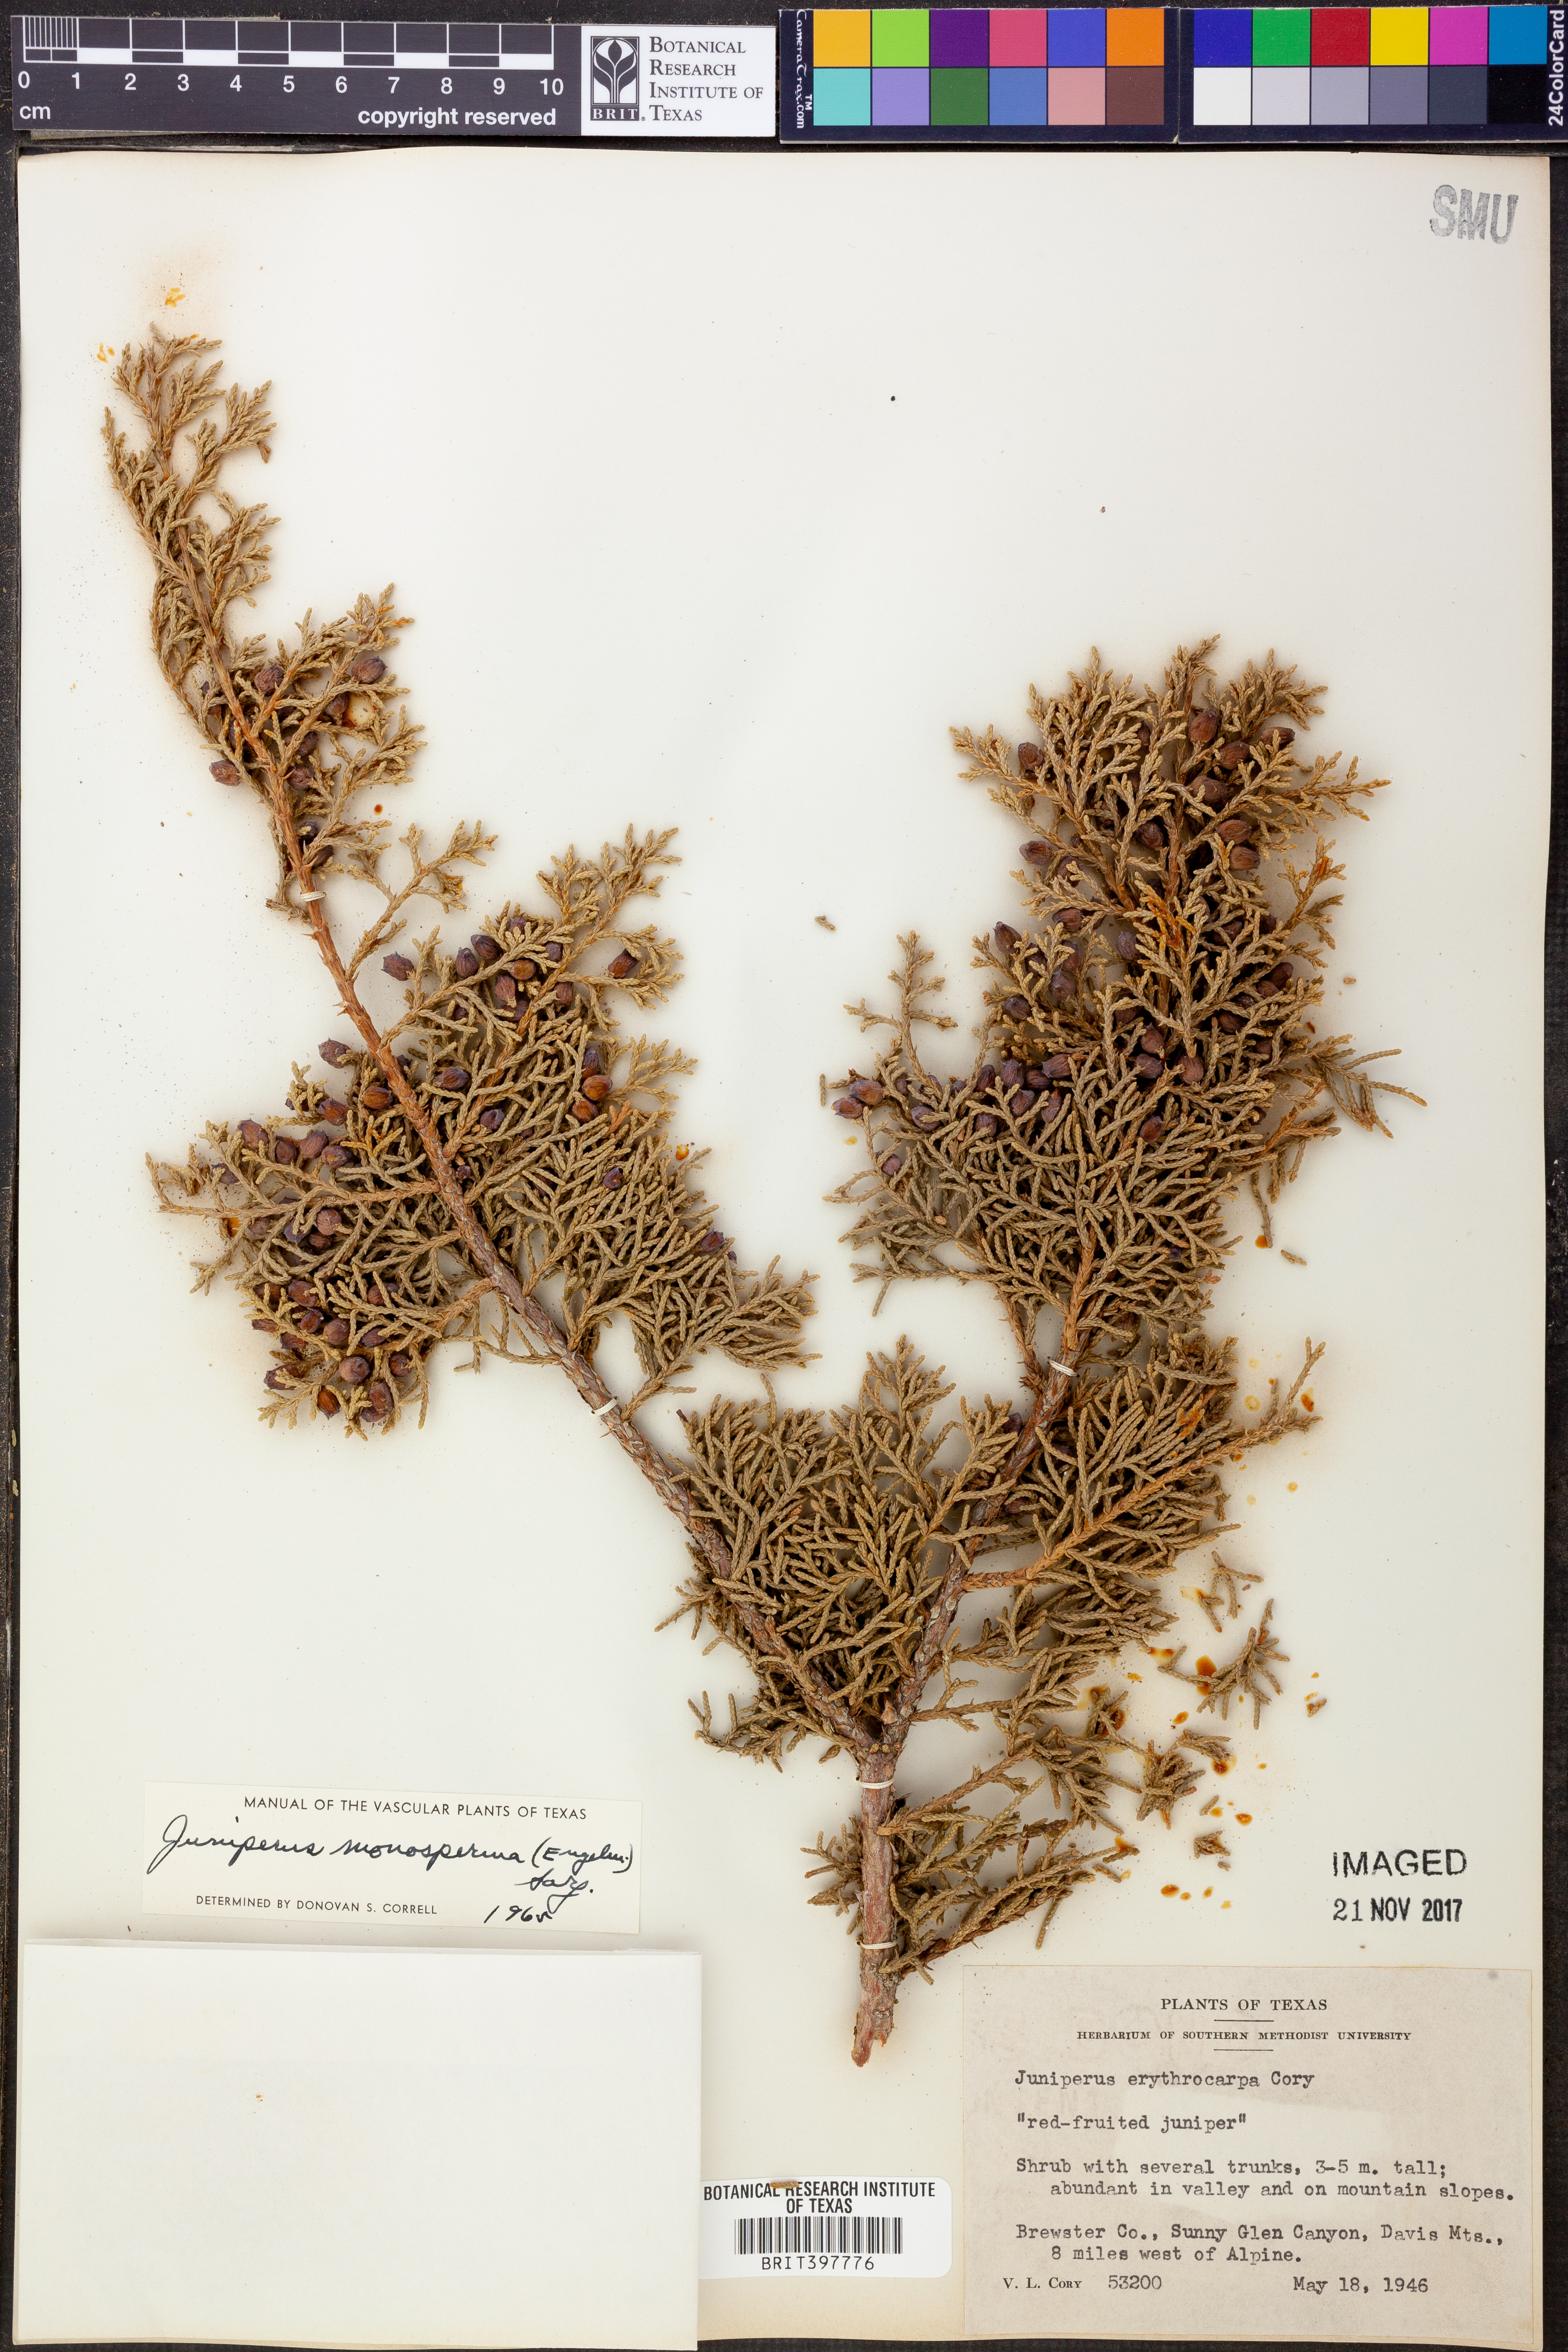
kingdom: Plantae
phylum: Tracheophyta
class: Pinopsida
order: Pinales
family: Cupressaceae
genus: Juniperus
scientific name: Juniperus monosperma
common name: One-seed juniper
